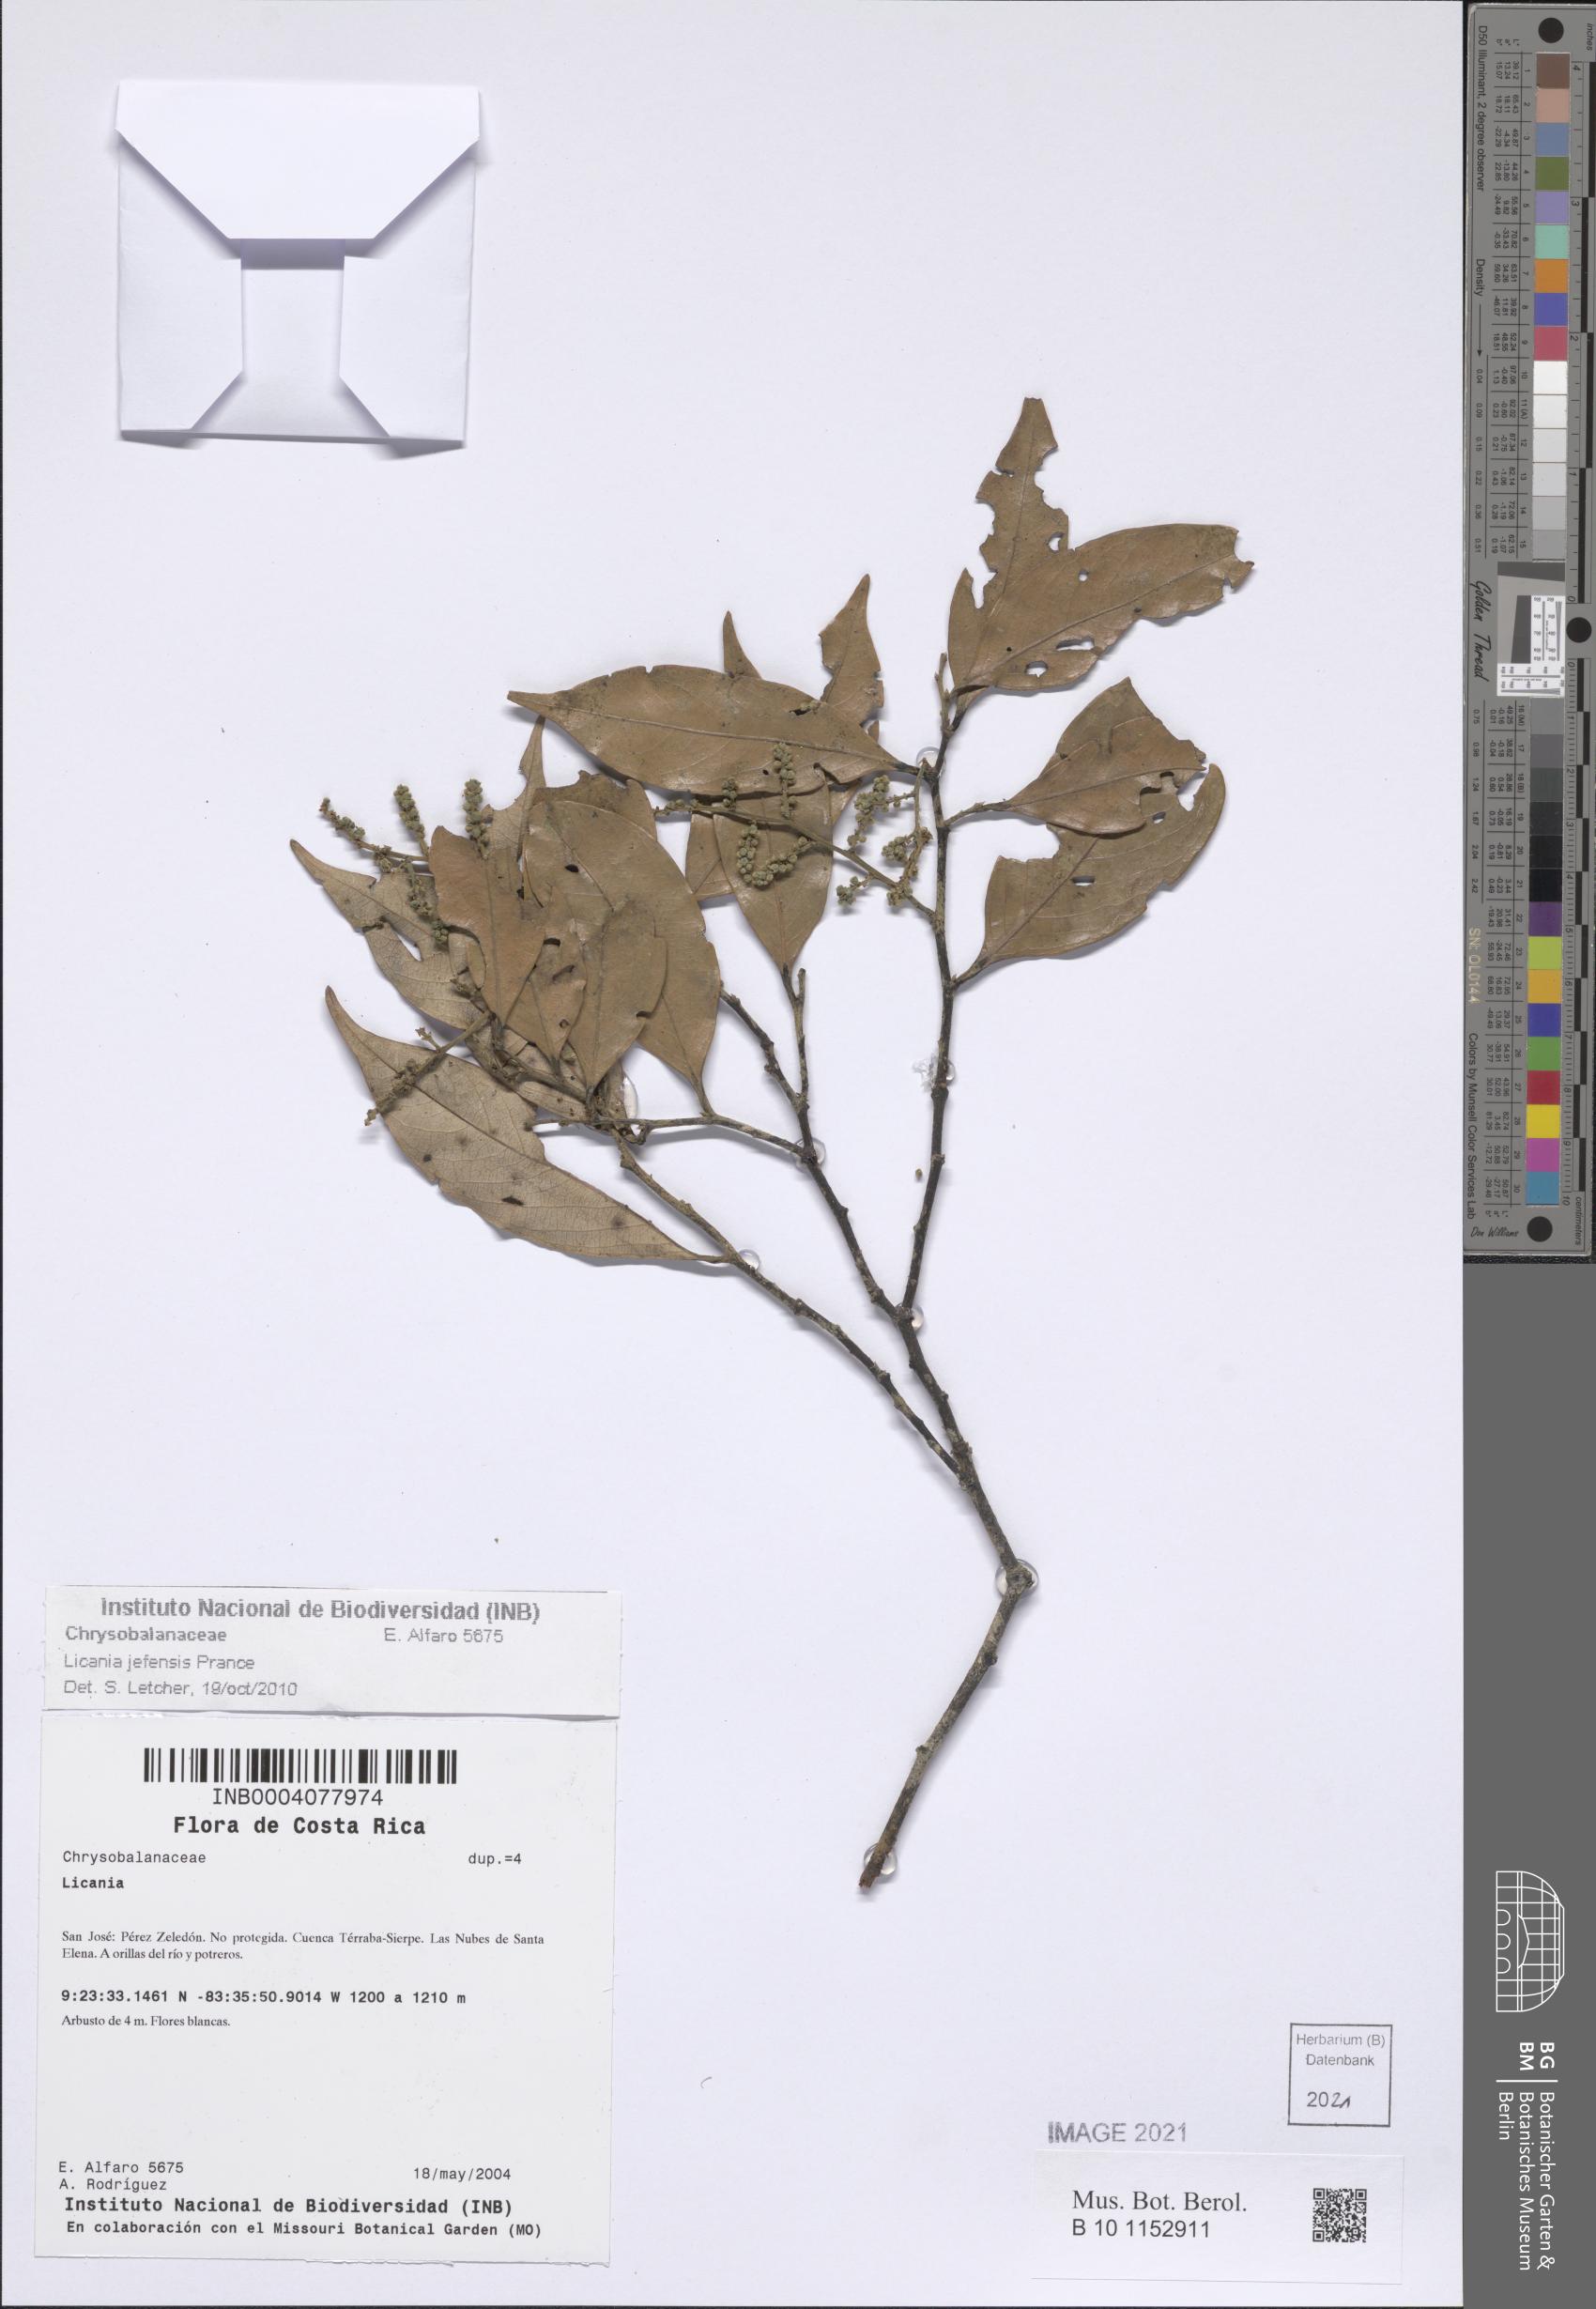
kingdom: Plantae
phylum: Tracheophyta
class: Magnoliopsida
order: Malpighiales
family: Chrysobalanaceae
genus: Leptobalanus
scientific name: Leptobalanus jefensis
